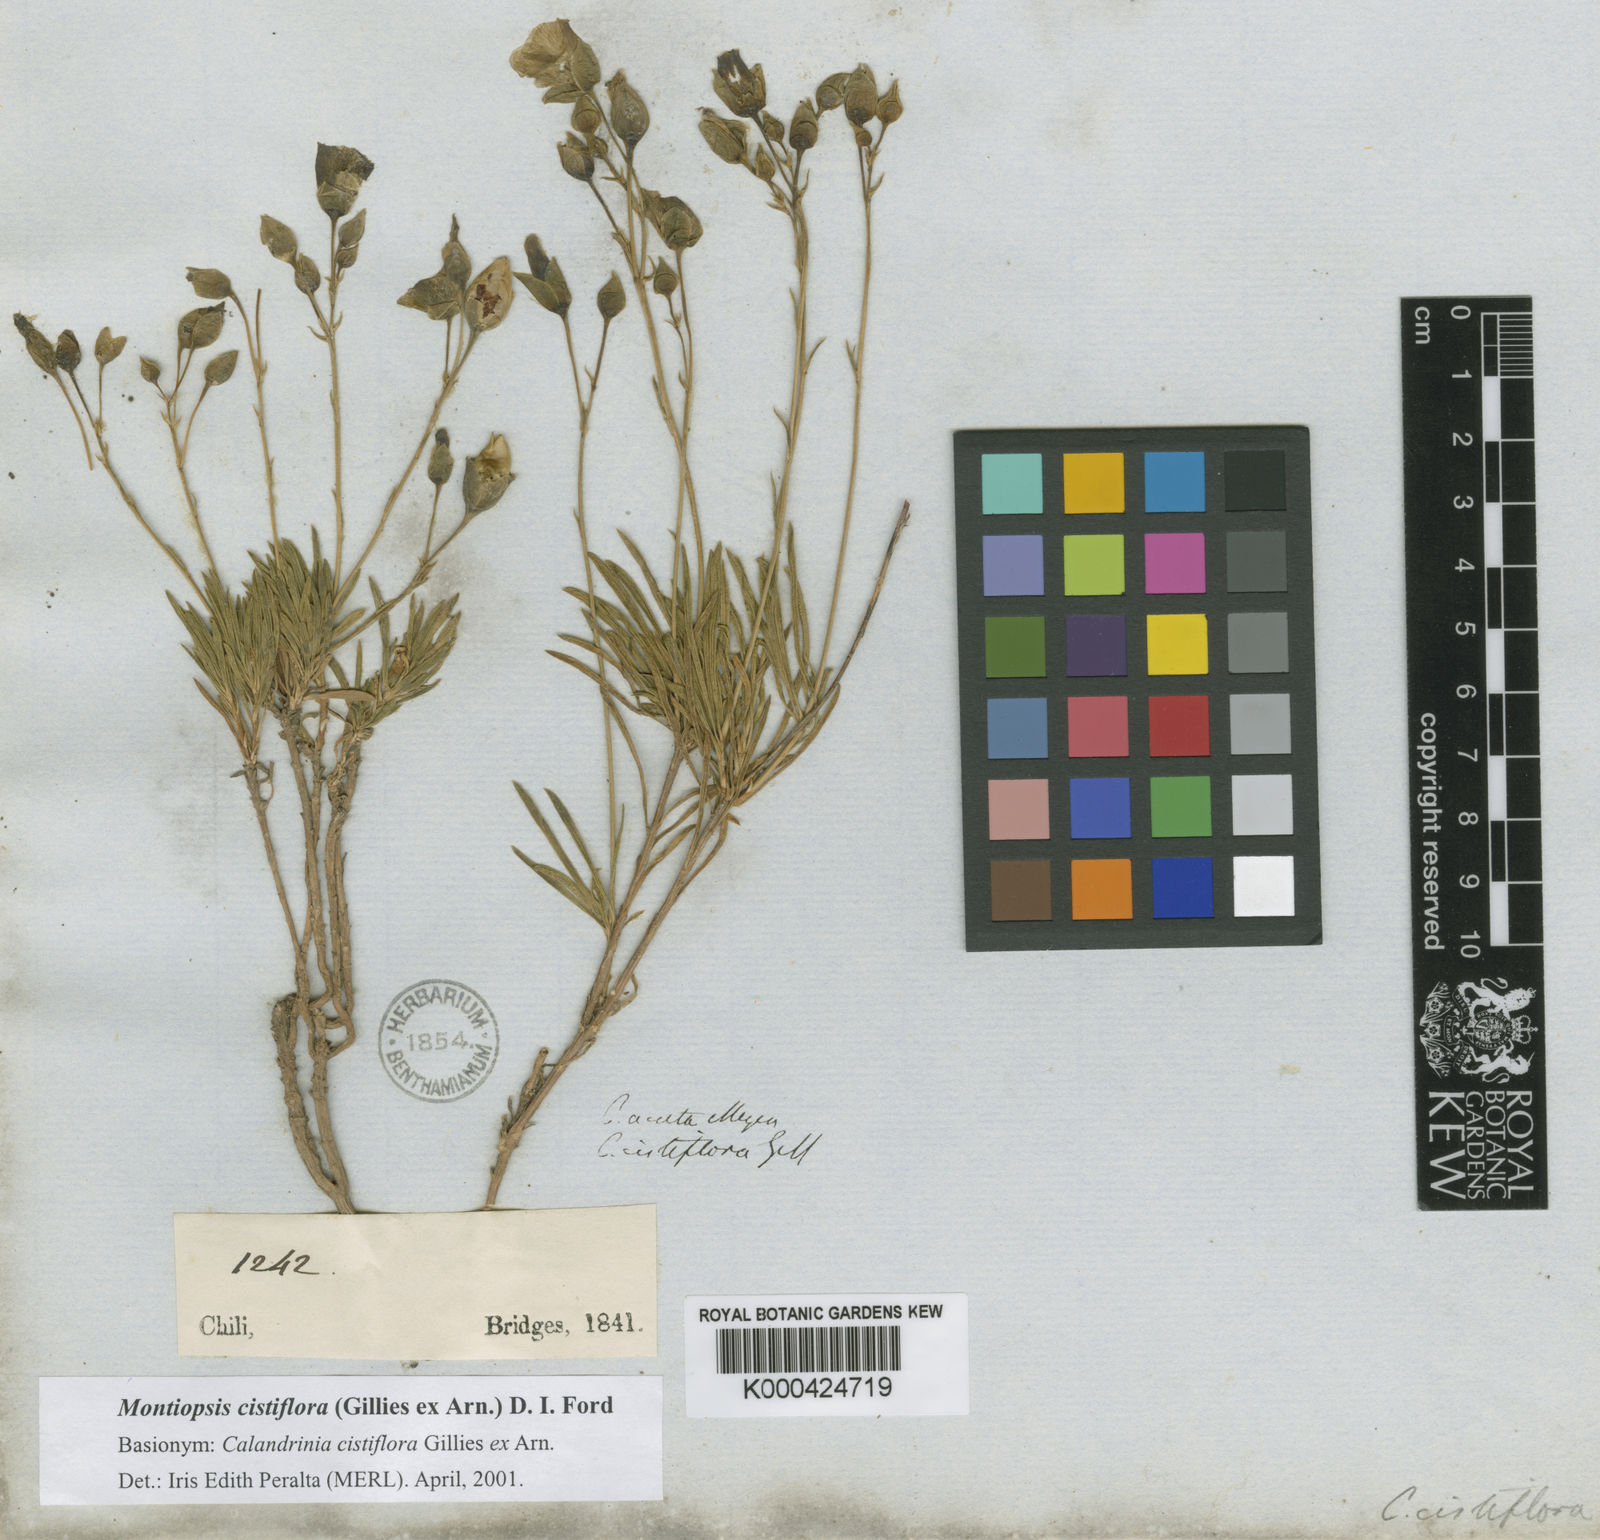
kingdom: Plantae
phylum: Tracheophyta
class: Magnoliopsida
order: Caryophyllales
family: Montiaceae
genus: Montiopsis
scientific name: Montiopsis cistiflora
